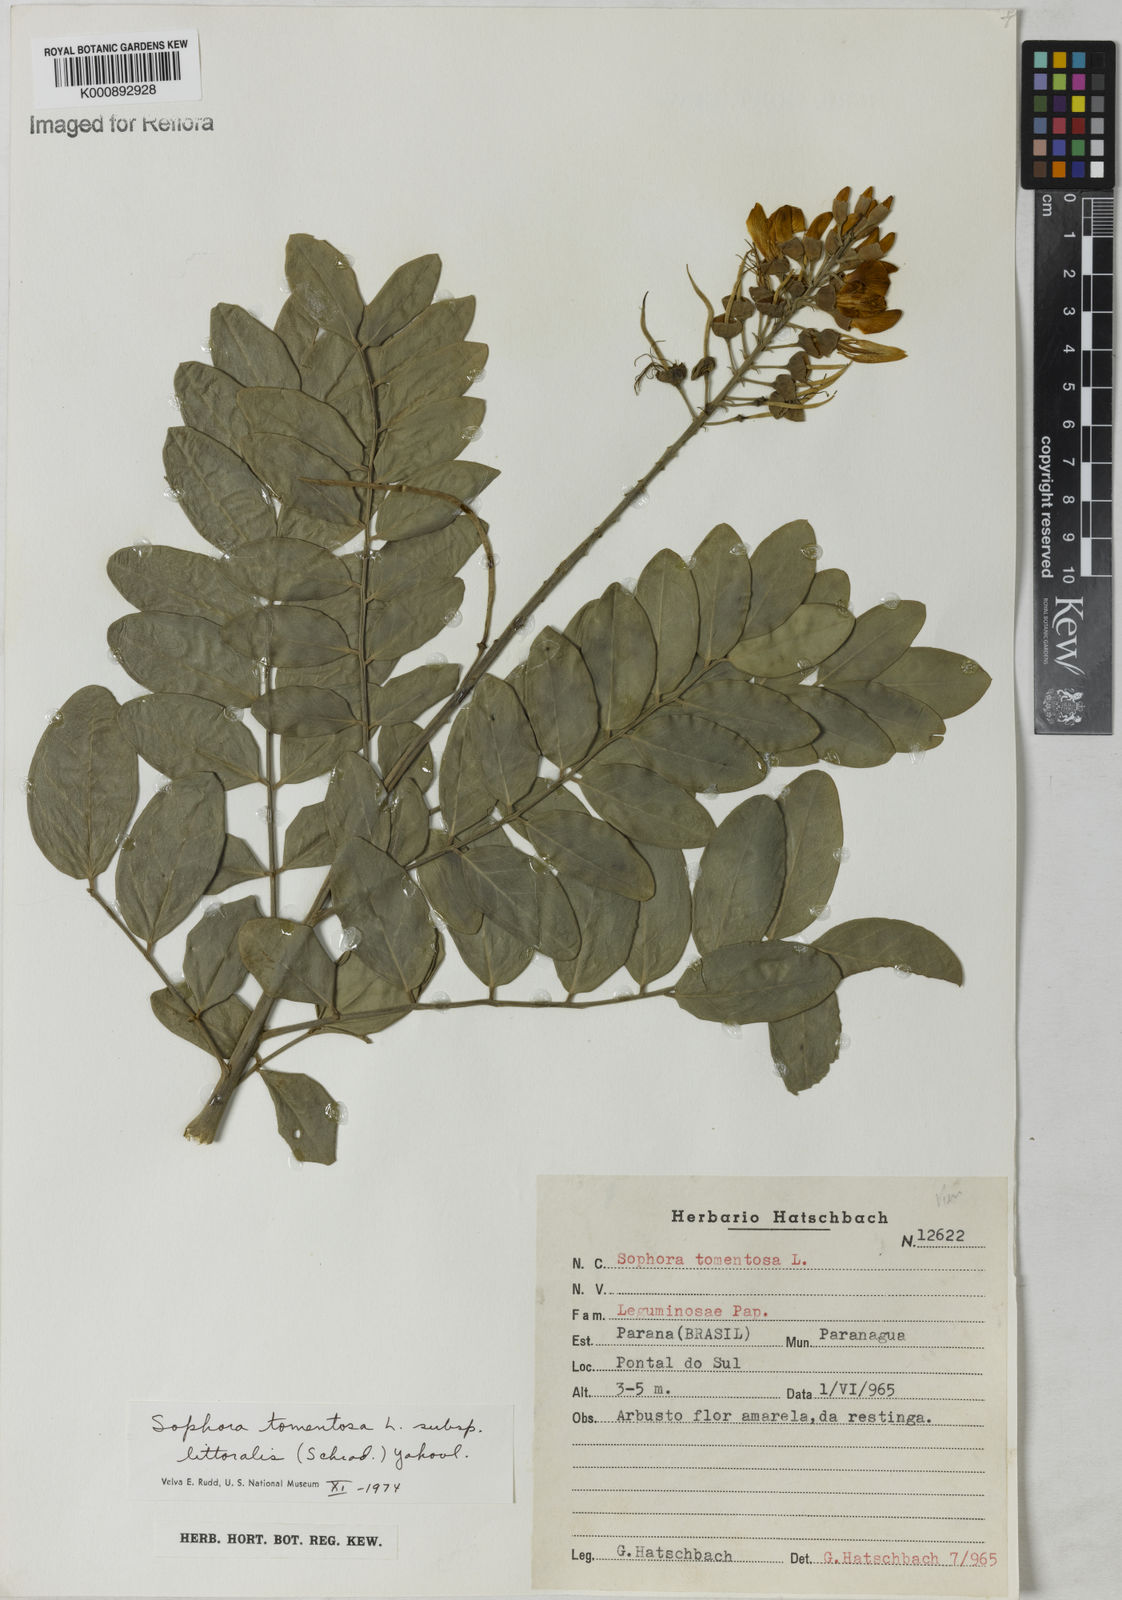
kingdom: Plantae
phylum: Tracheophyta
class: Magnoliopsida
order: Fabales
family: Fabaceae
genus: Sophora
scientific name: Sophora tomentosa
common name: Yellow necklacepod
